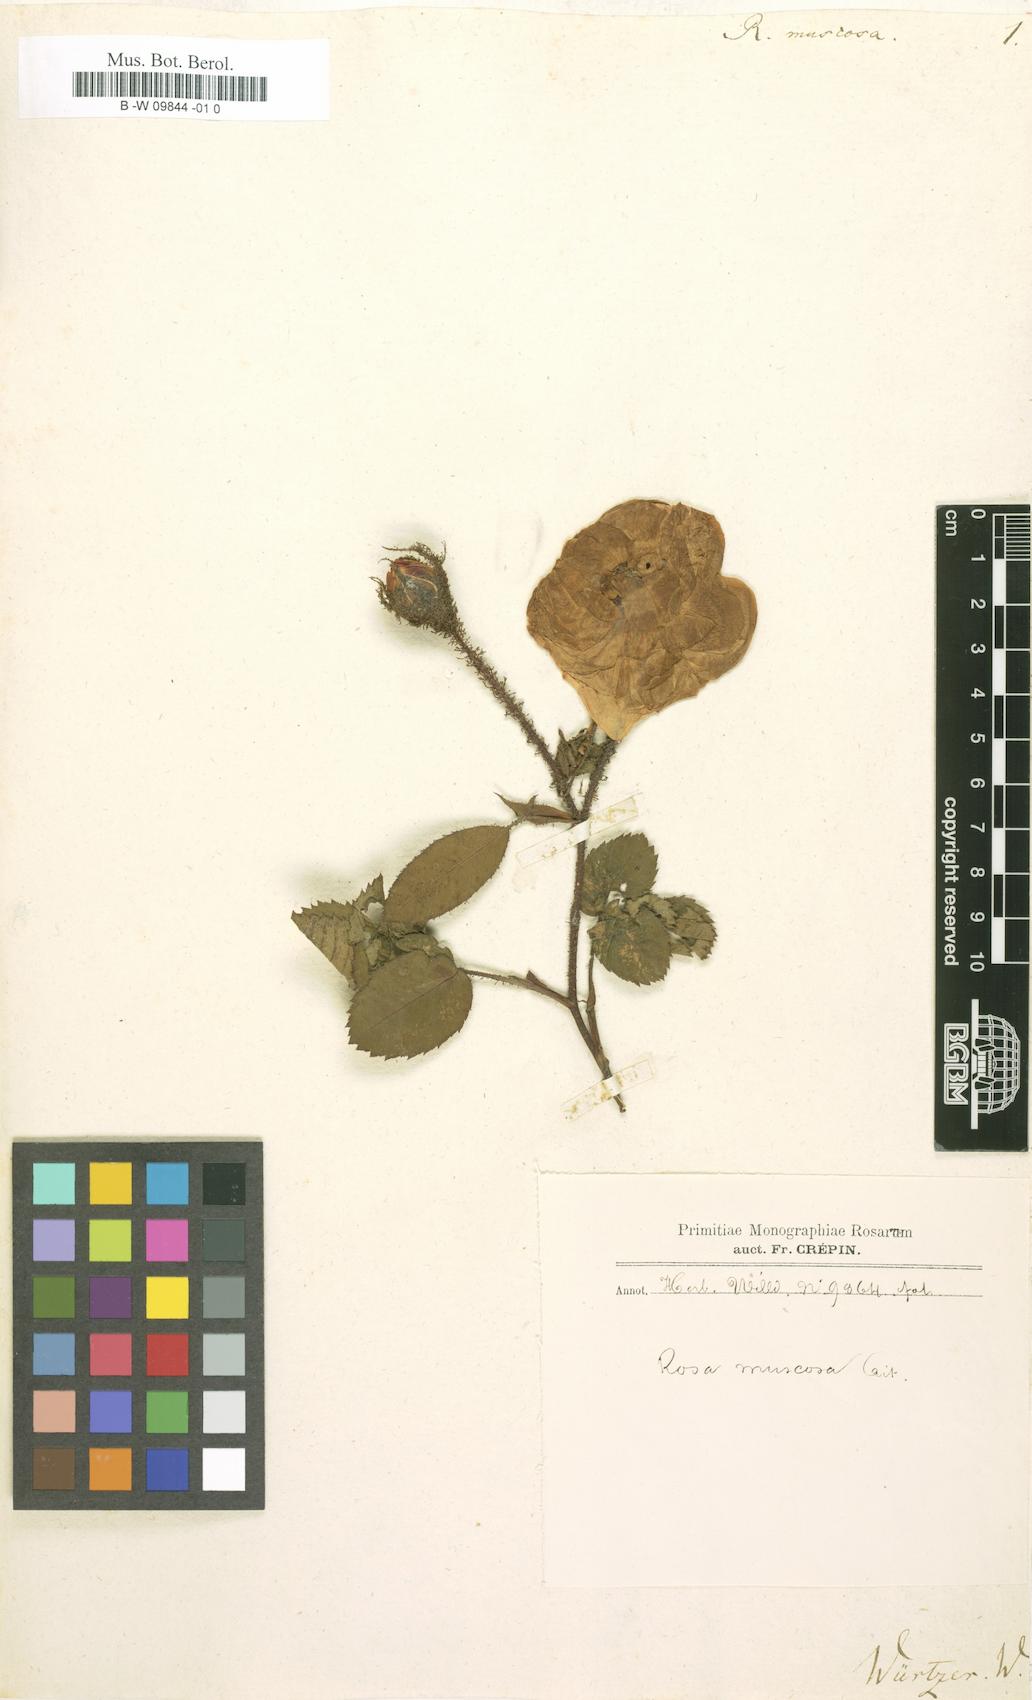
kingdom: Plantae
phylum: Tracheophyta
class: Magnoliopsida
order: Rosales
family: Rosaceae
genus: Rosa
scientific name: Rosa centifolia
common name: Cabbage rose
